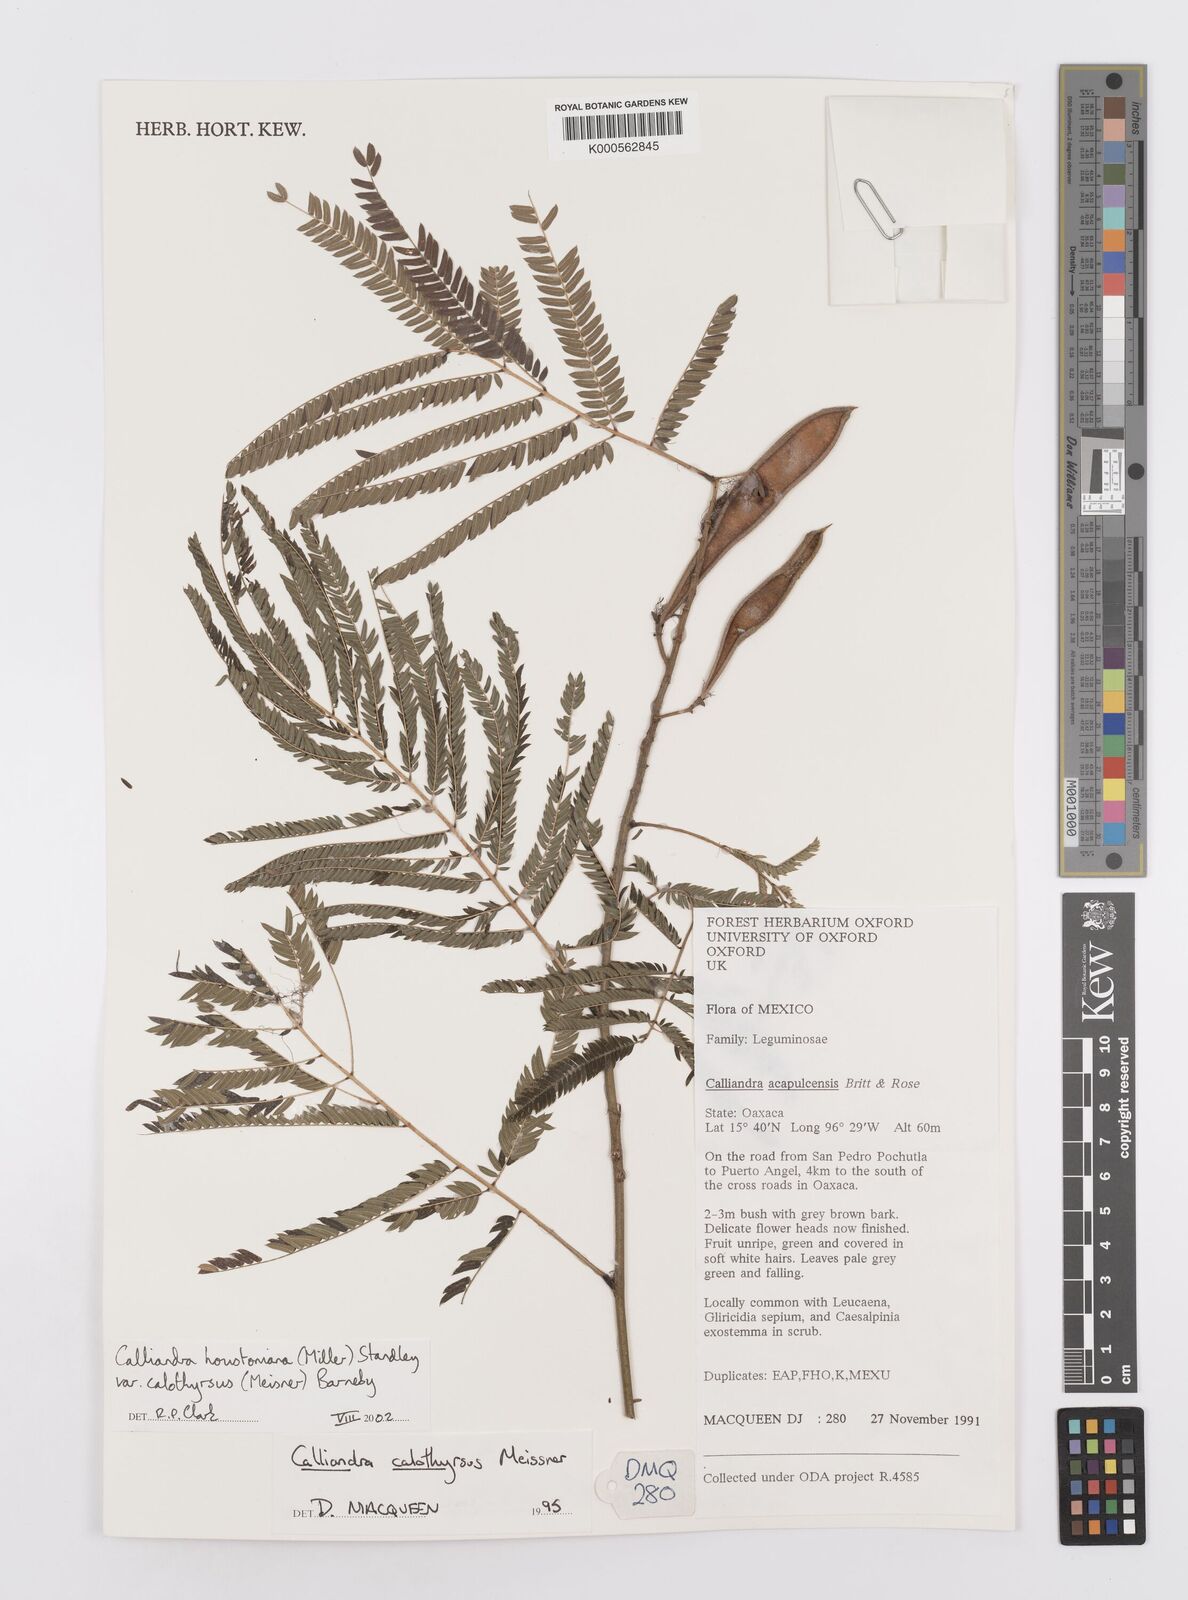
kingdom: Plantae
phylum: Tracheophyta
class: Magnoliopsida
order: Fabales
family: Fabaceae
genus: Calliandra
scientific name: Calliandra houstoniana
